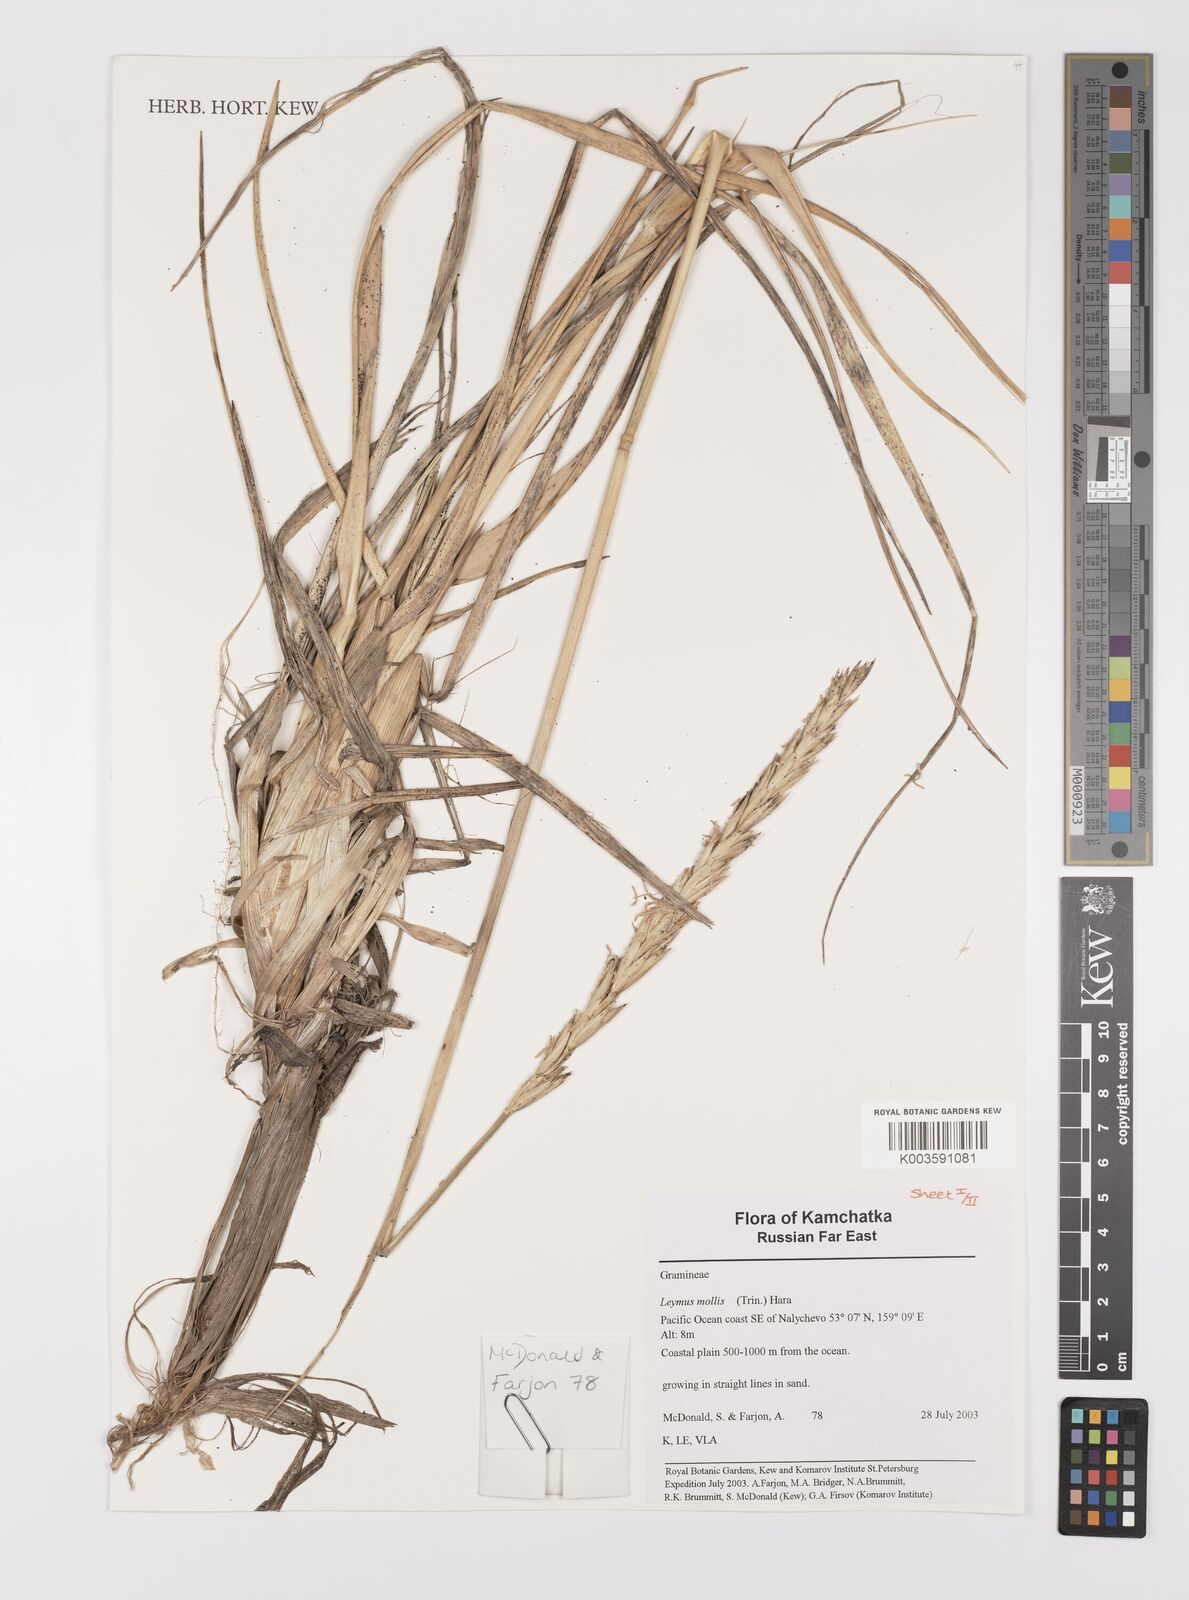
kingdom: Plantae
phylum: Tracheophyta
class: Liliopsida
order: Poales
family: Poaceae
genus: Leymus
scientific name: Leymus mollis
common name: American dune grass
